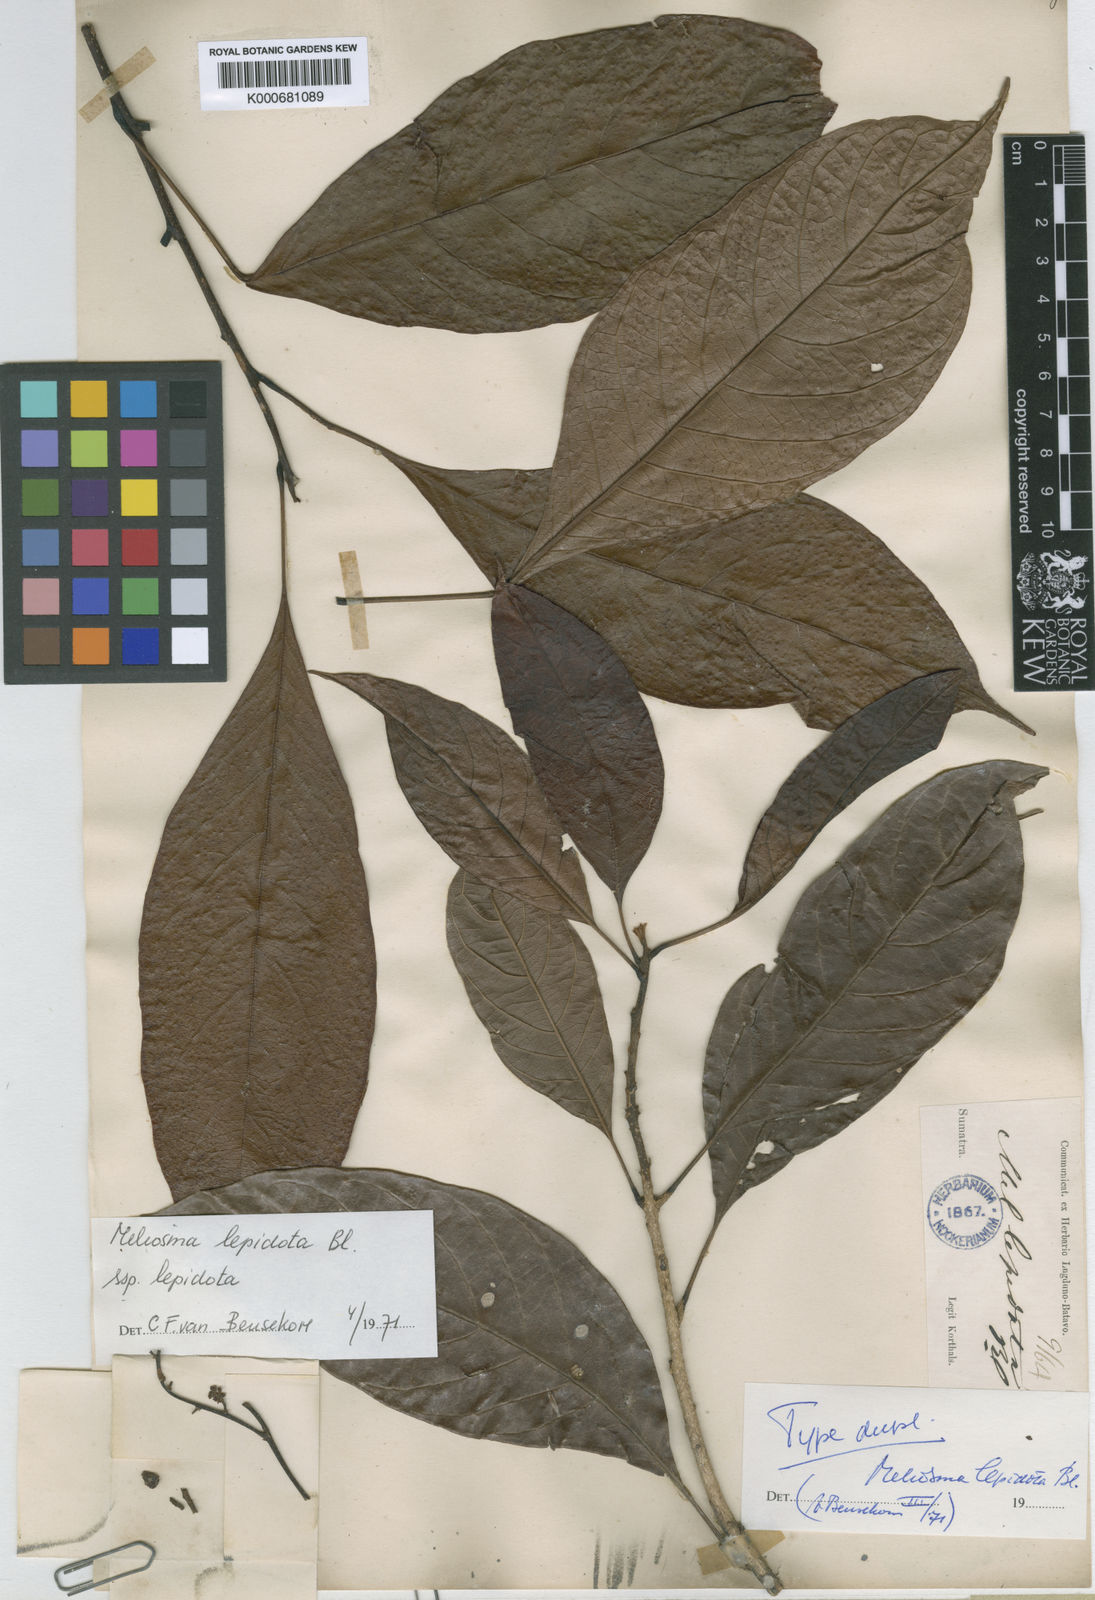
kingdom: Plantae
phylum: Tracheophyta
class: Magnoliopsida
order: Proteales
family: Sabiaceae
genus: Meliosma
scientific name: Meliosma lepidota
